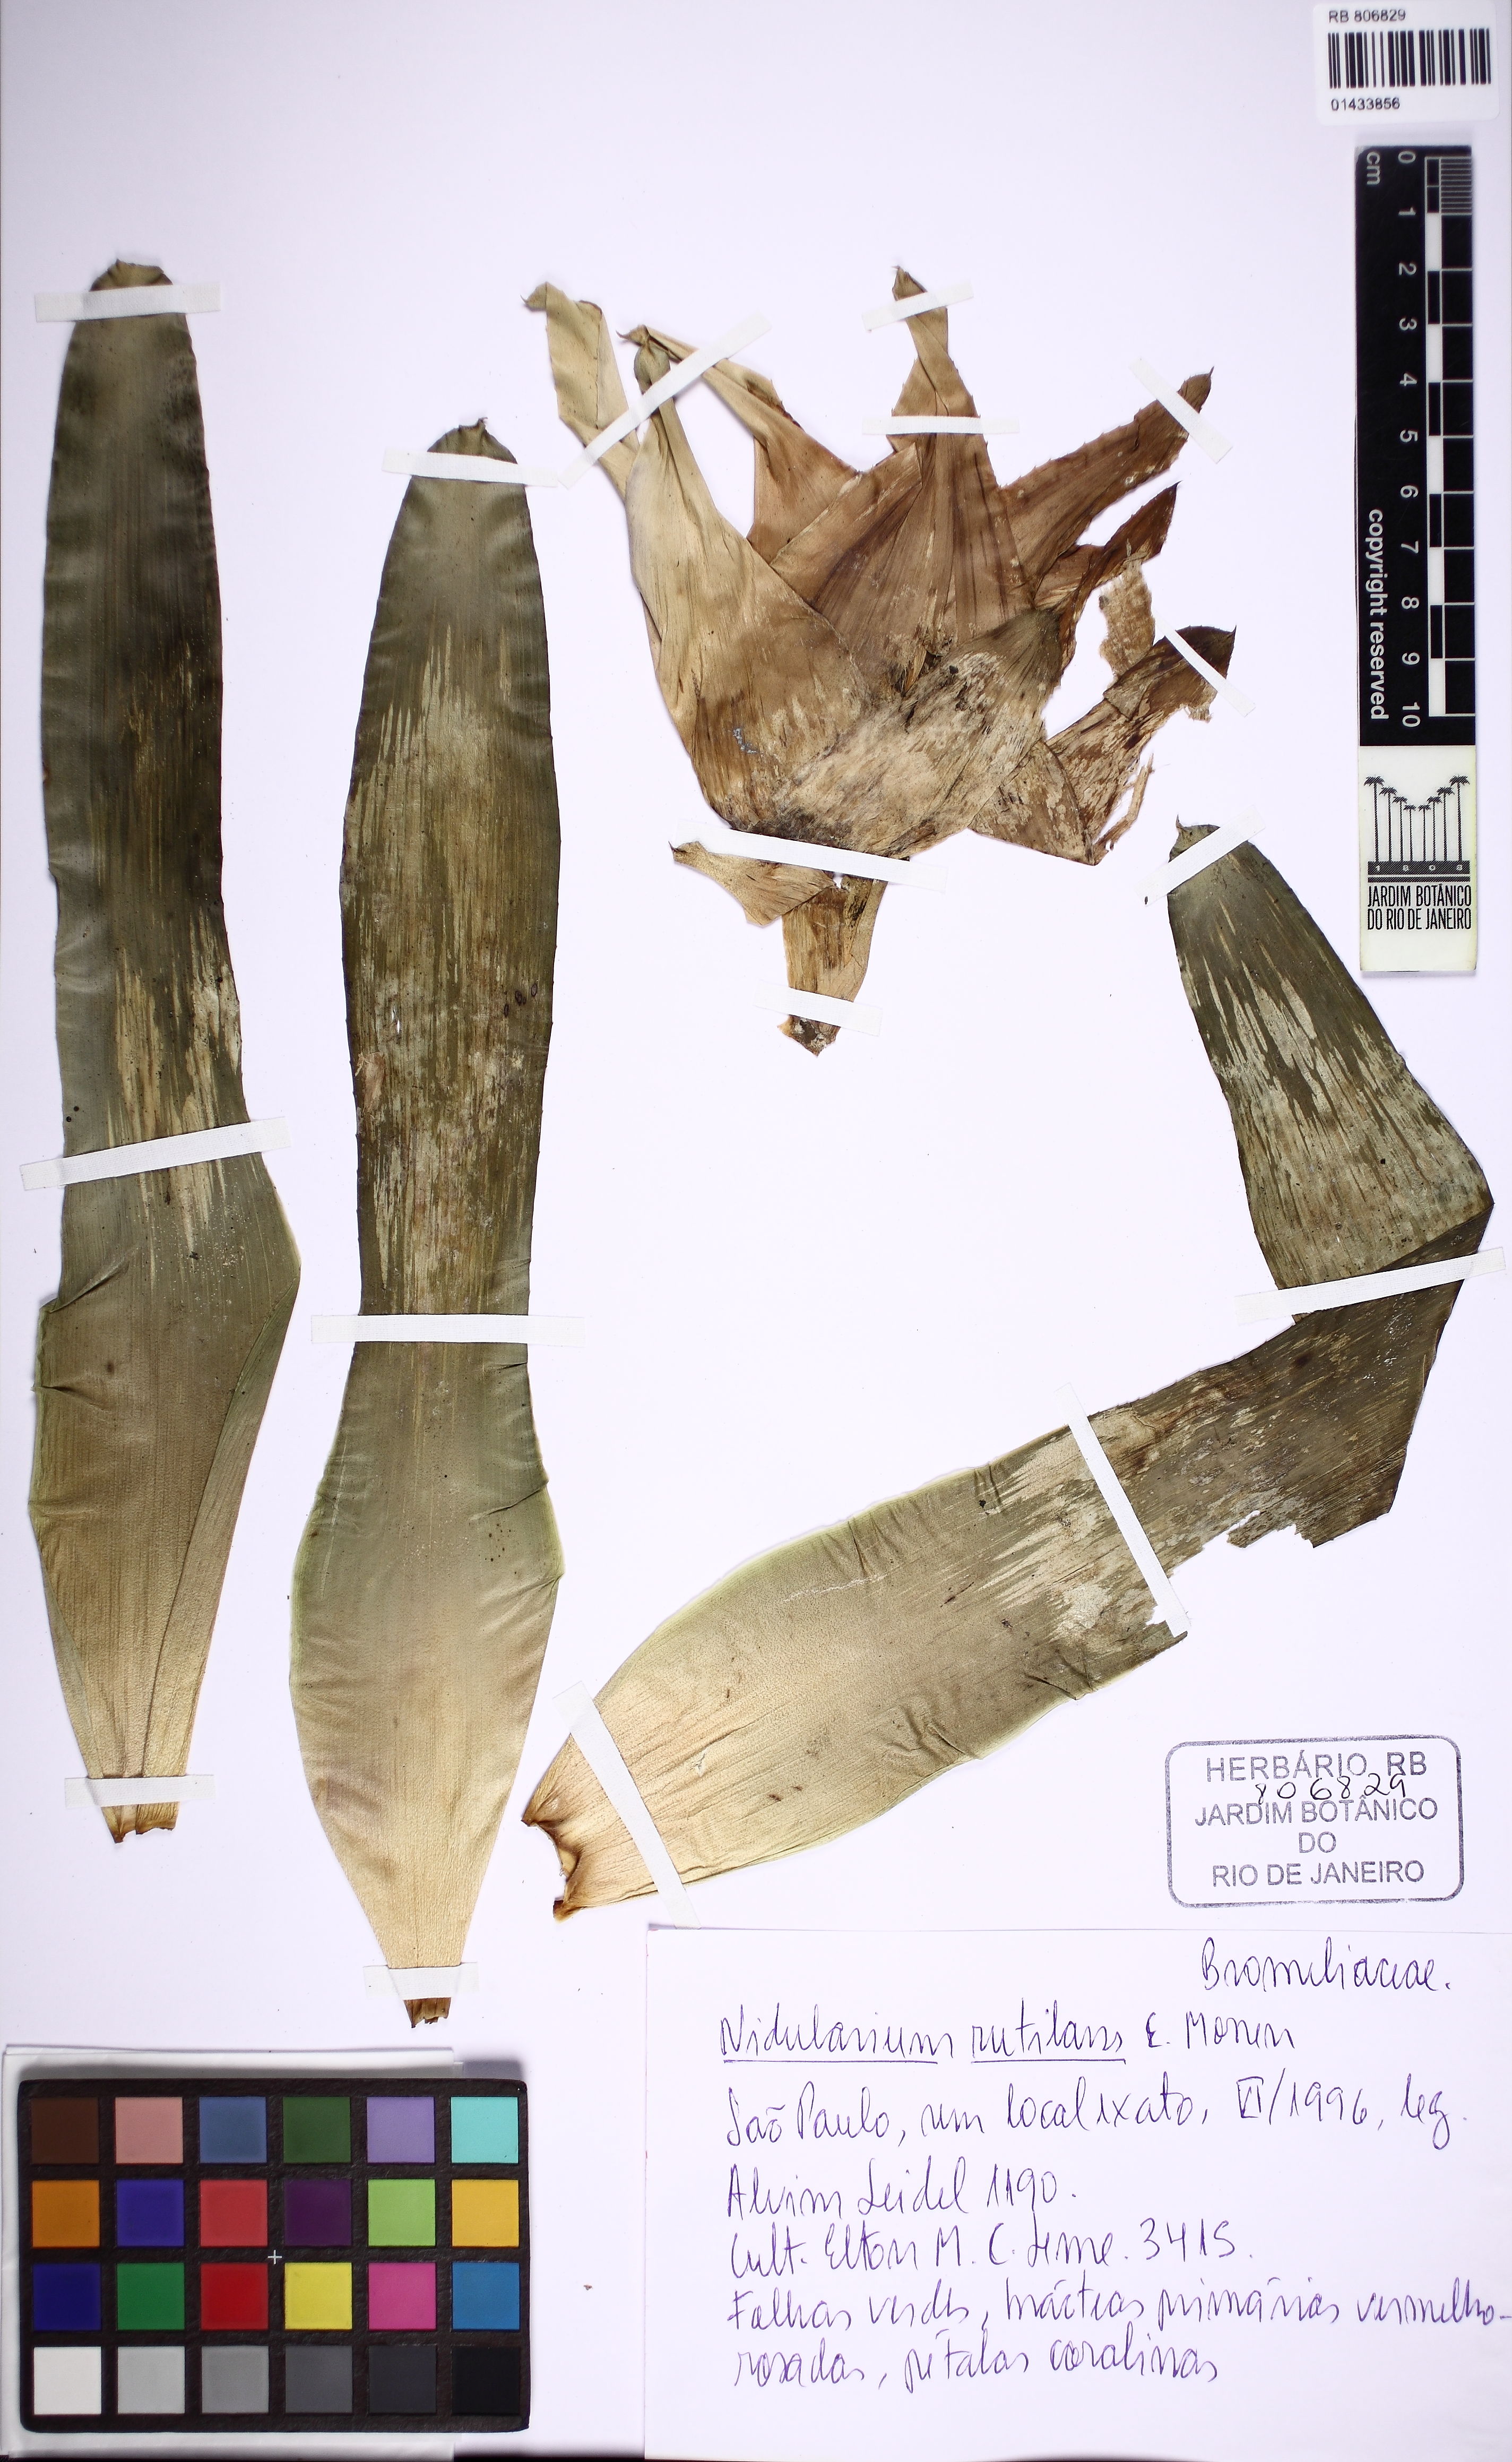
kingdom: Plantae
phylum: Tracheophyta
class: Liliopsida
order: Poales
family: Bromeliaceae
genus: Nidularium
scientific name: Nidularium rutilans
